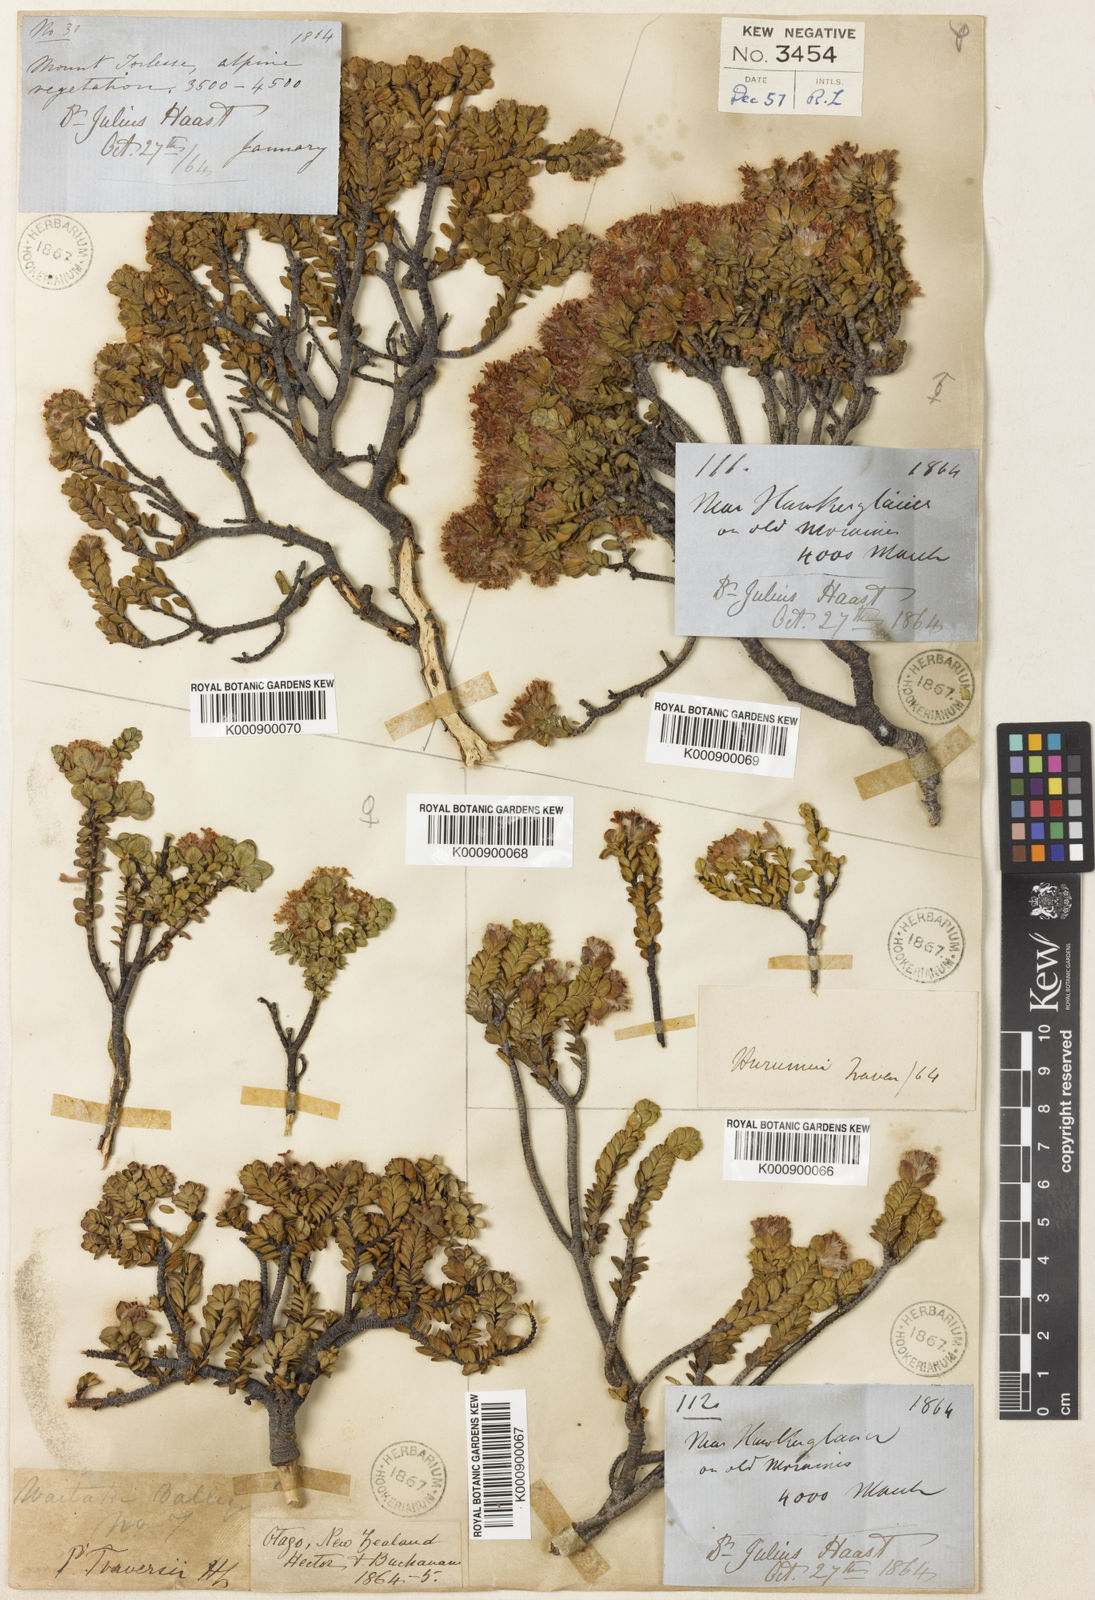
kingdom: Plantae
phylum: Tracheophyta
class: Magnoliopsida
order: Malvales
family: Thymelaeaceae
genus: Pimelea
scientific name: Pimelea traversii
